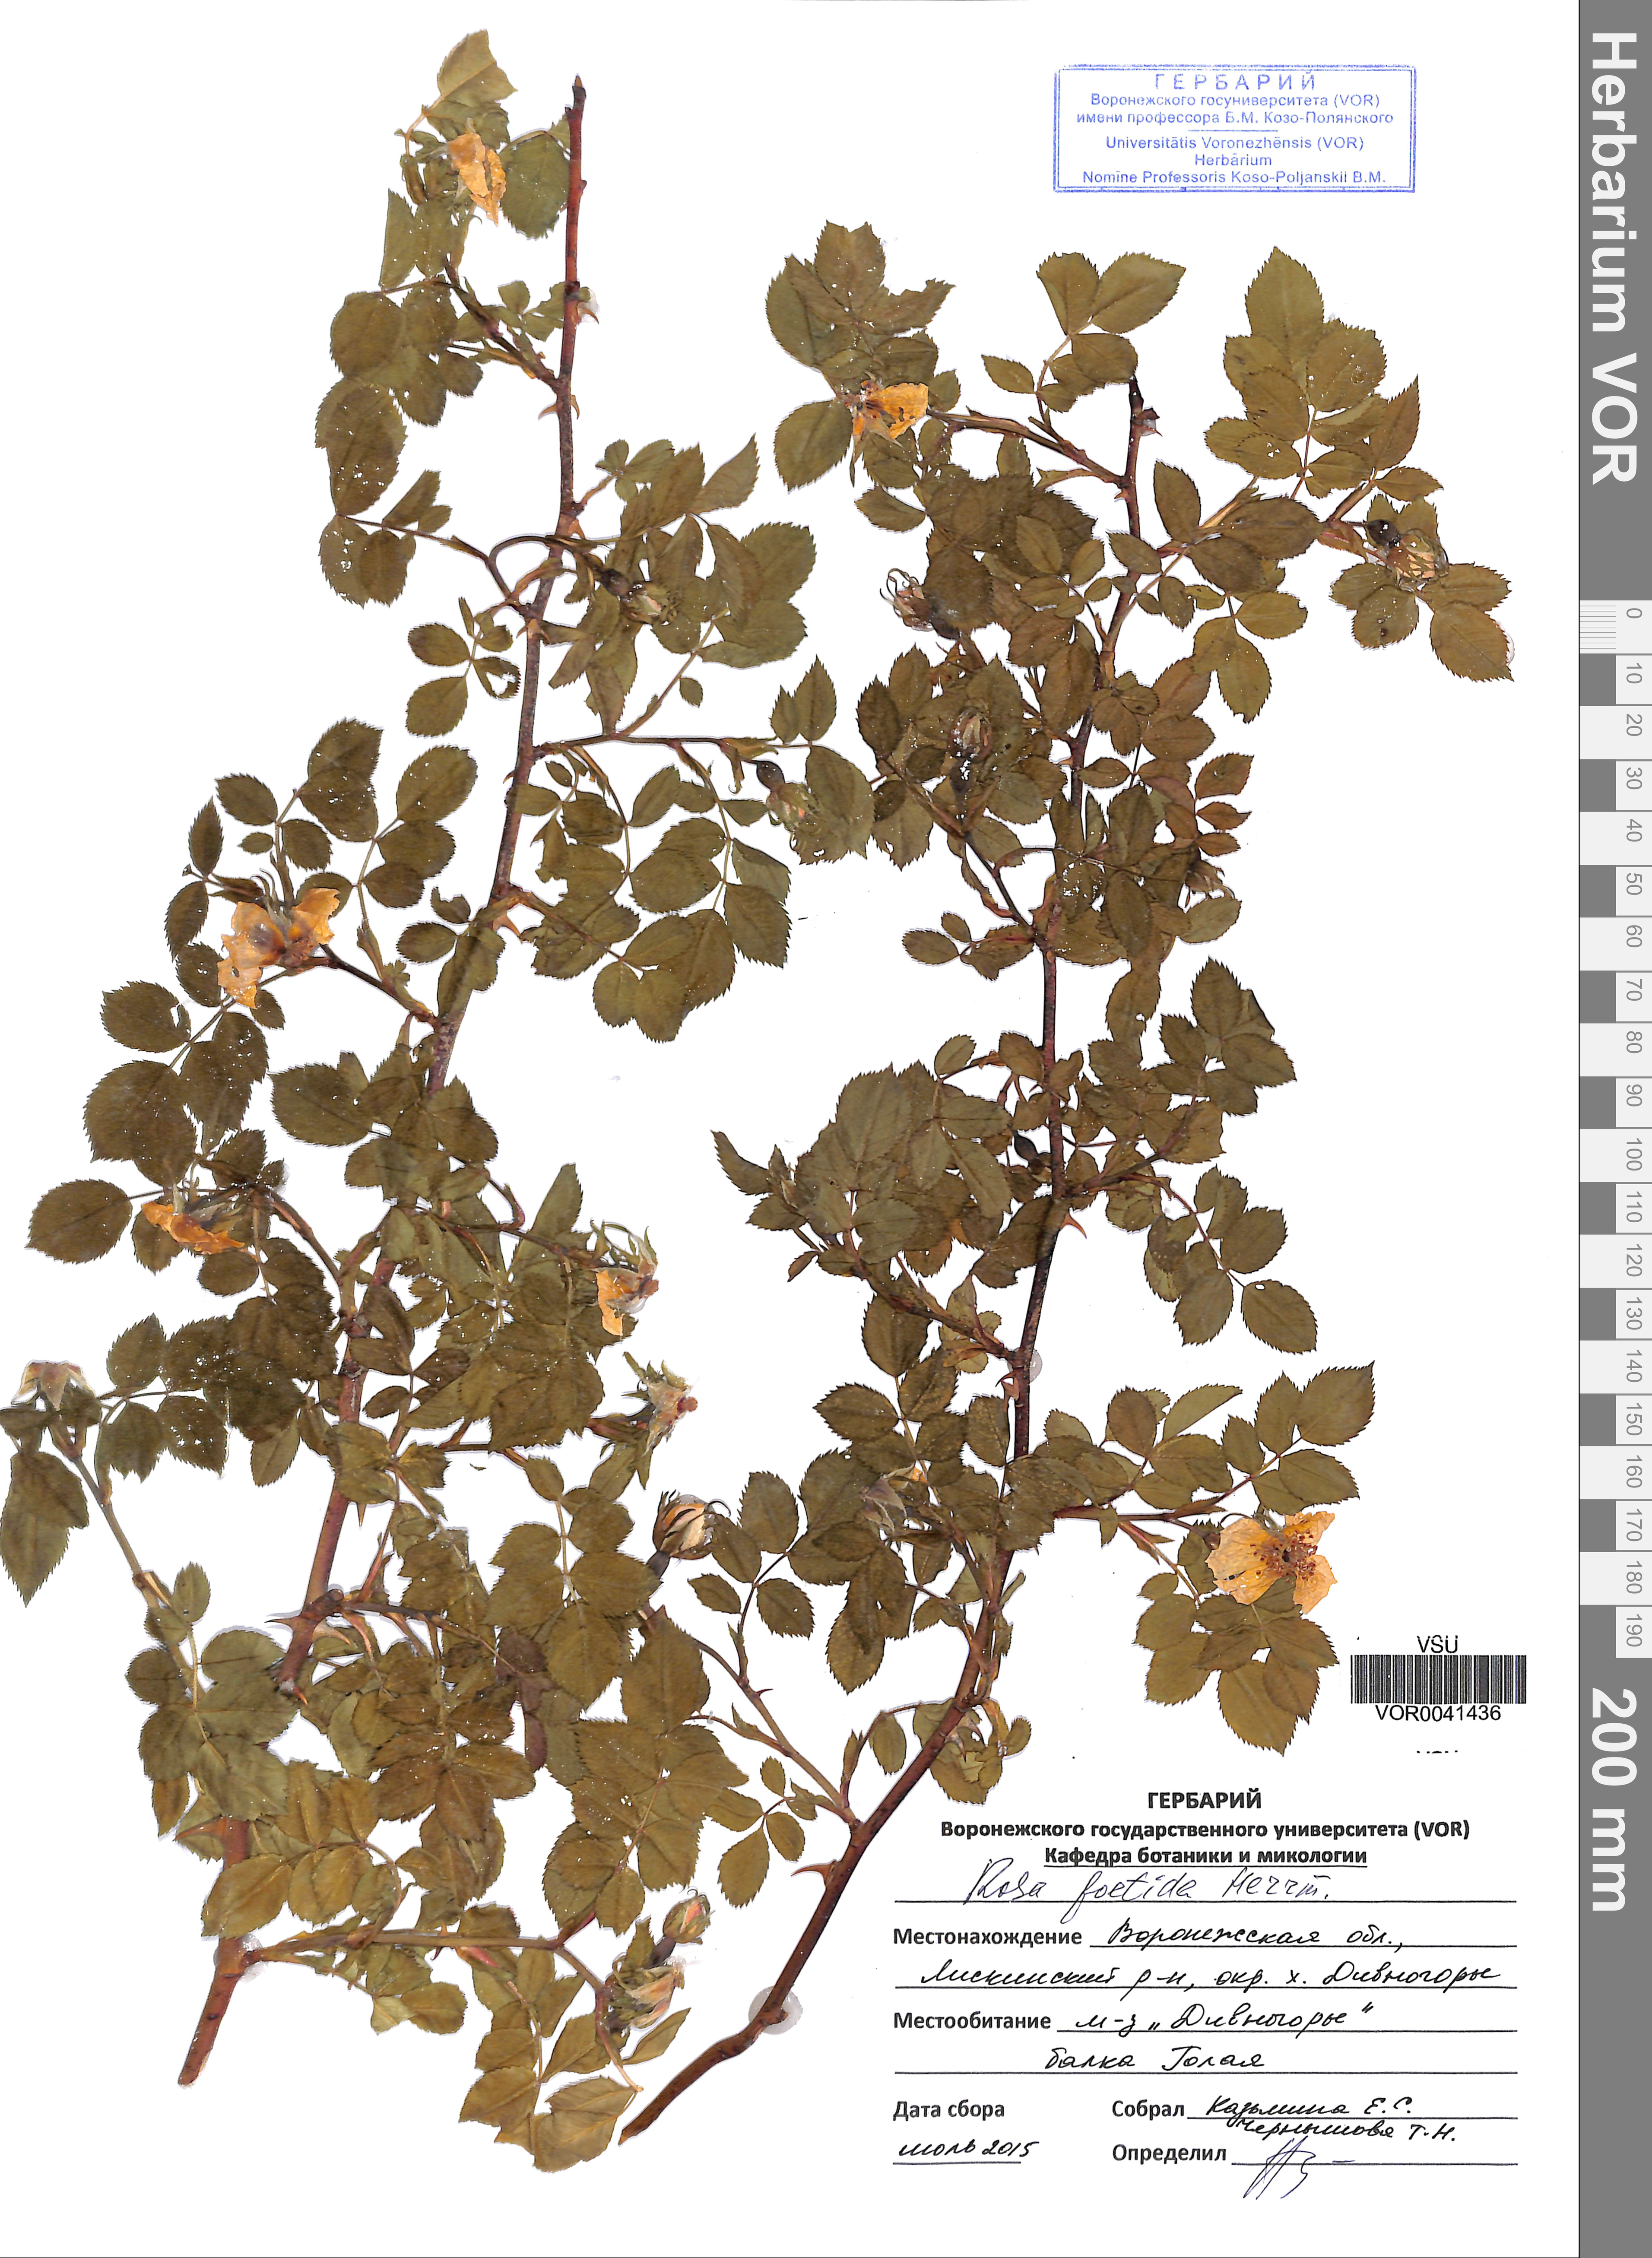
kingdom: Plantae
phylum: Tracheophyta
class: Magnoliopsida
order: Rosales
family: Rosaceae
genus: Rosa
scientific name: Rosa foetida
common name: Persian yellow rose
